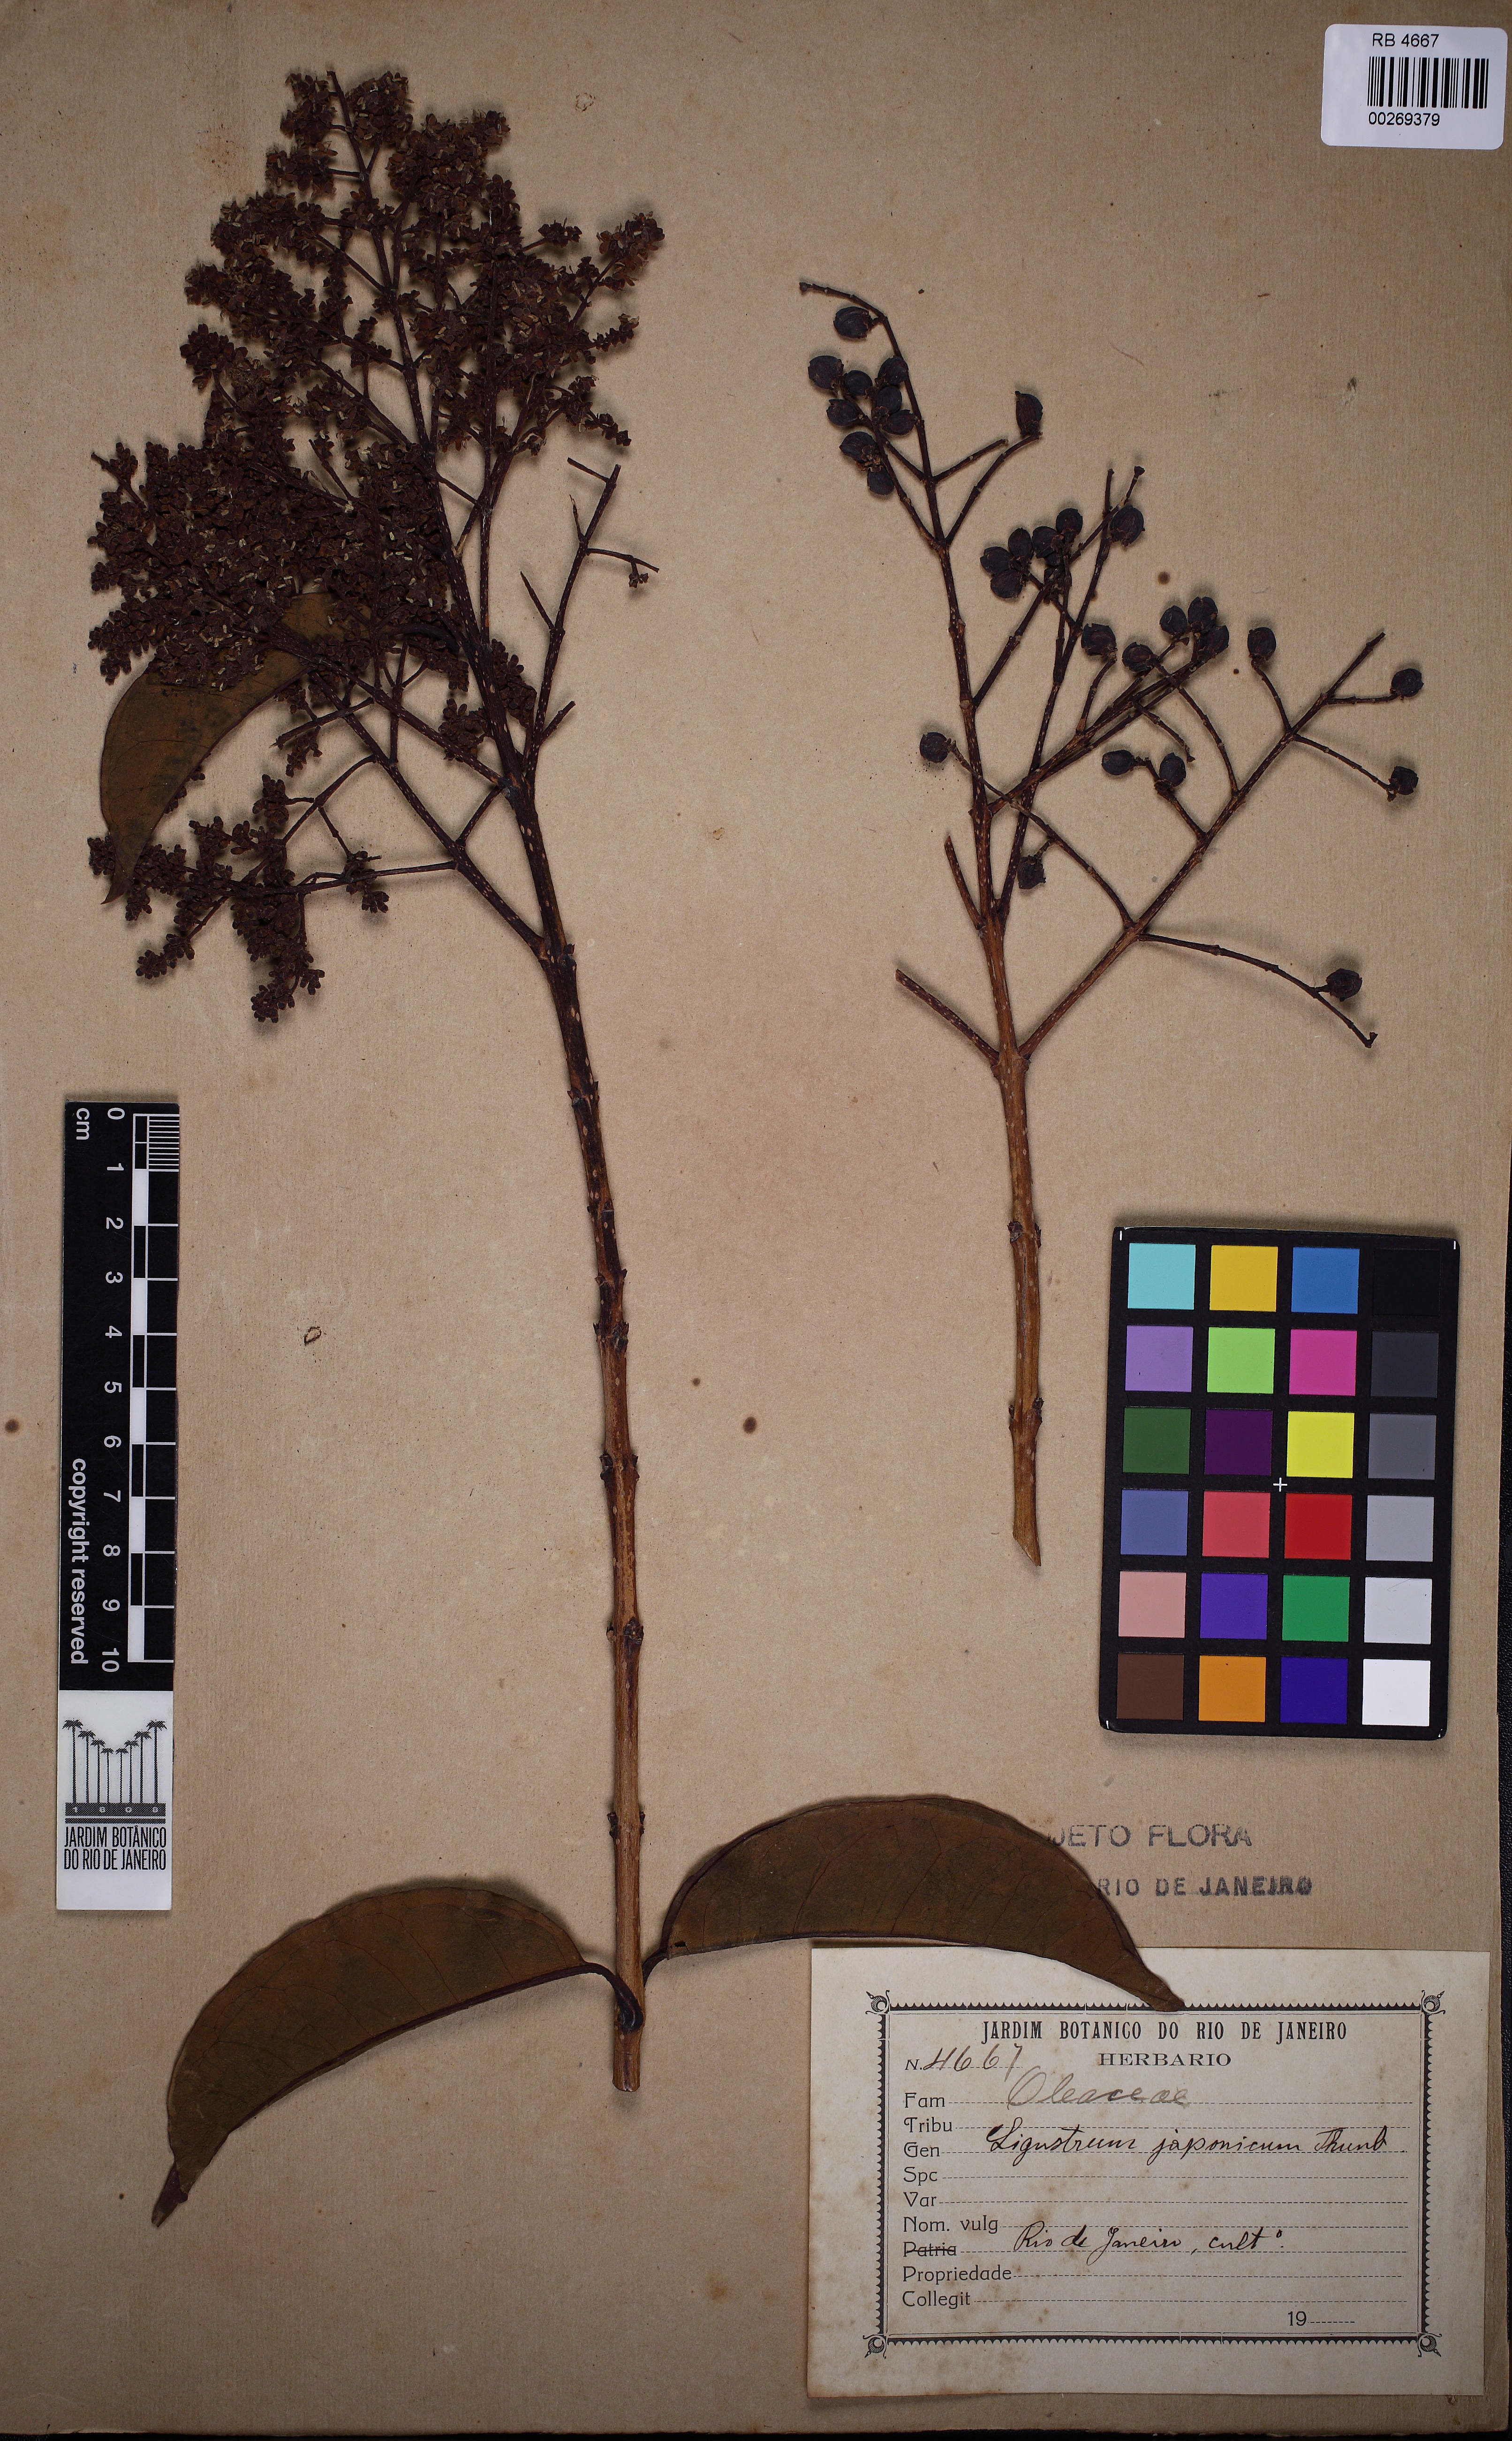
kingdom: Plantae
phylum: Tracheophyta
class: Magnoliopsida
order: Lamiales
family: Oleaceae
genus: Ligustrum
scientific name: Ligustrum japonicum
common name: Japanese privet
